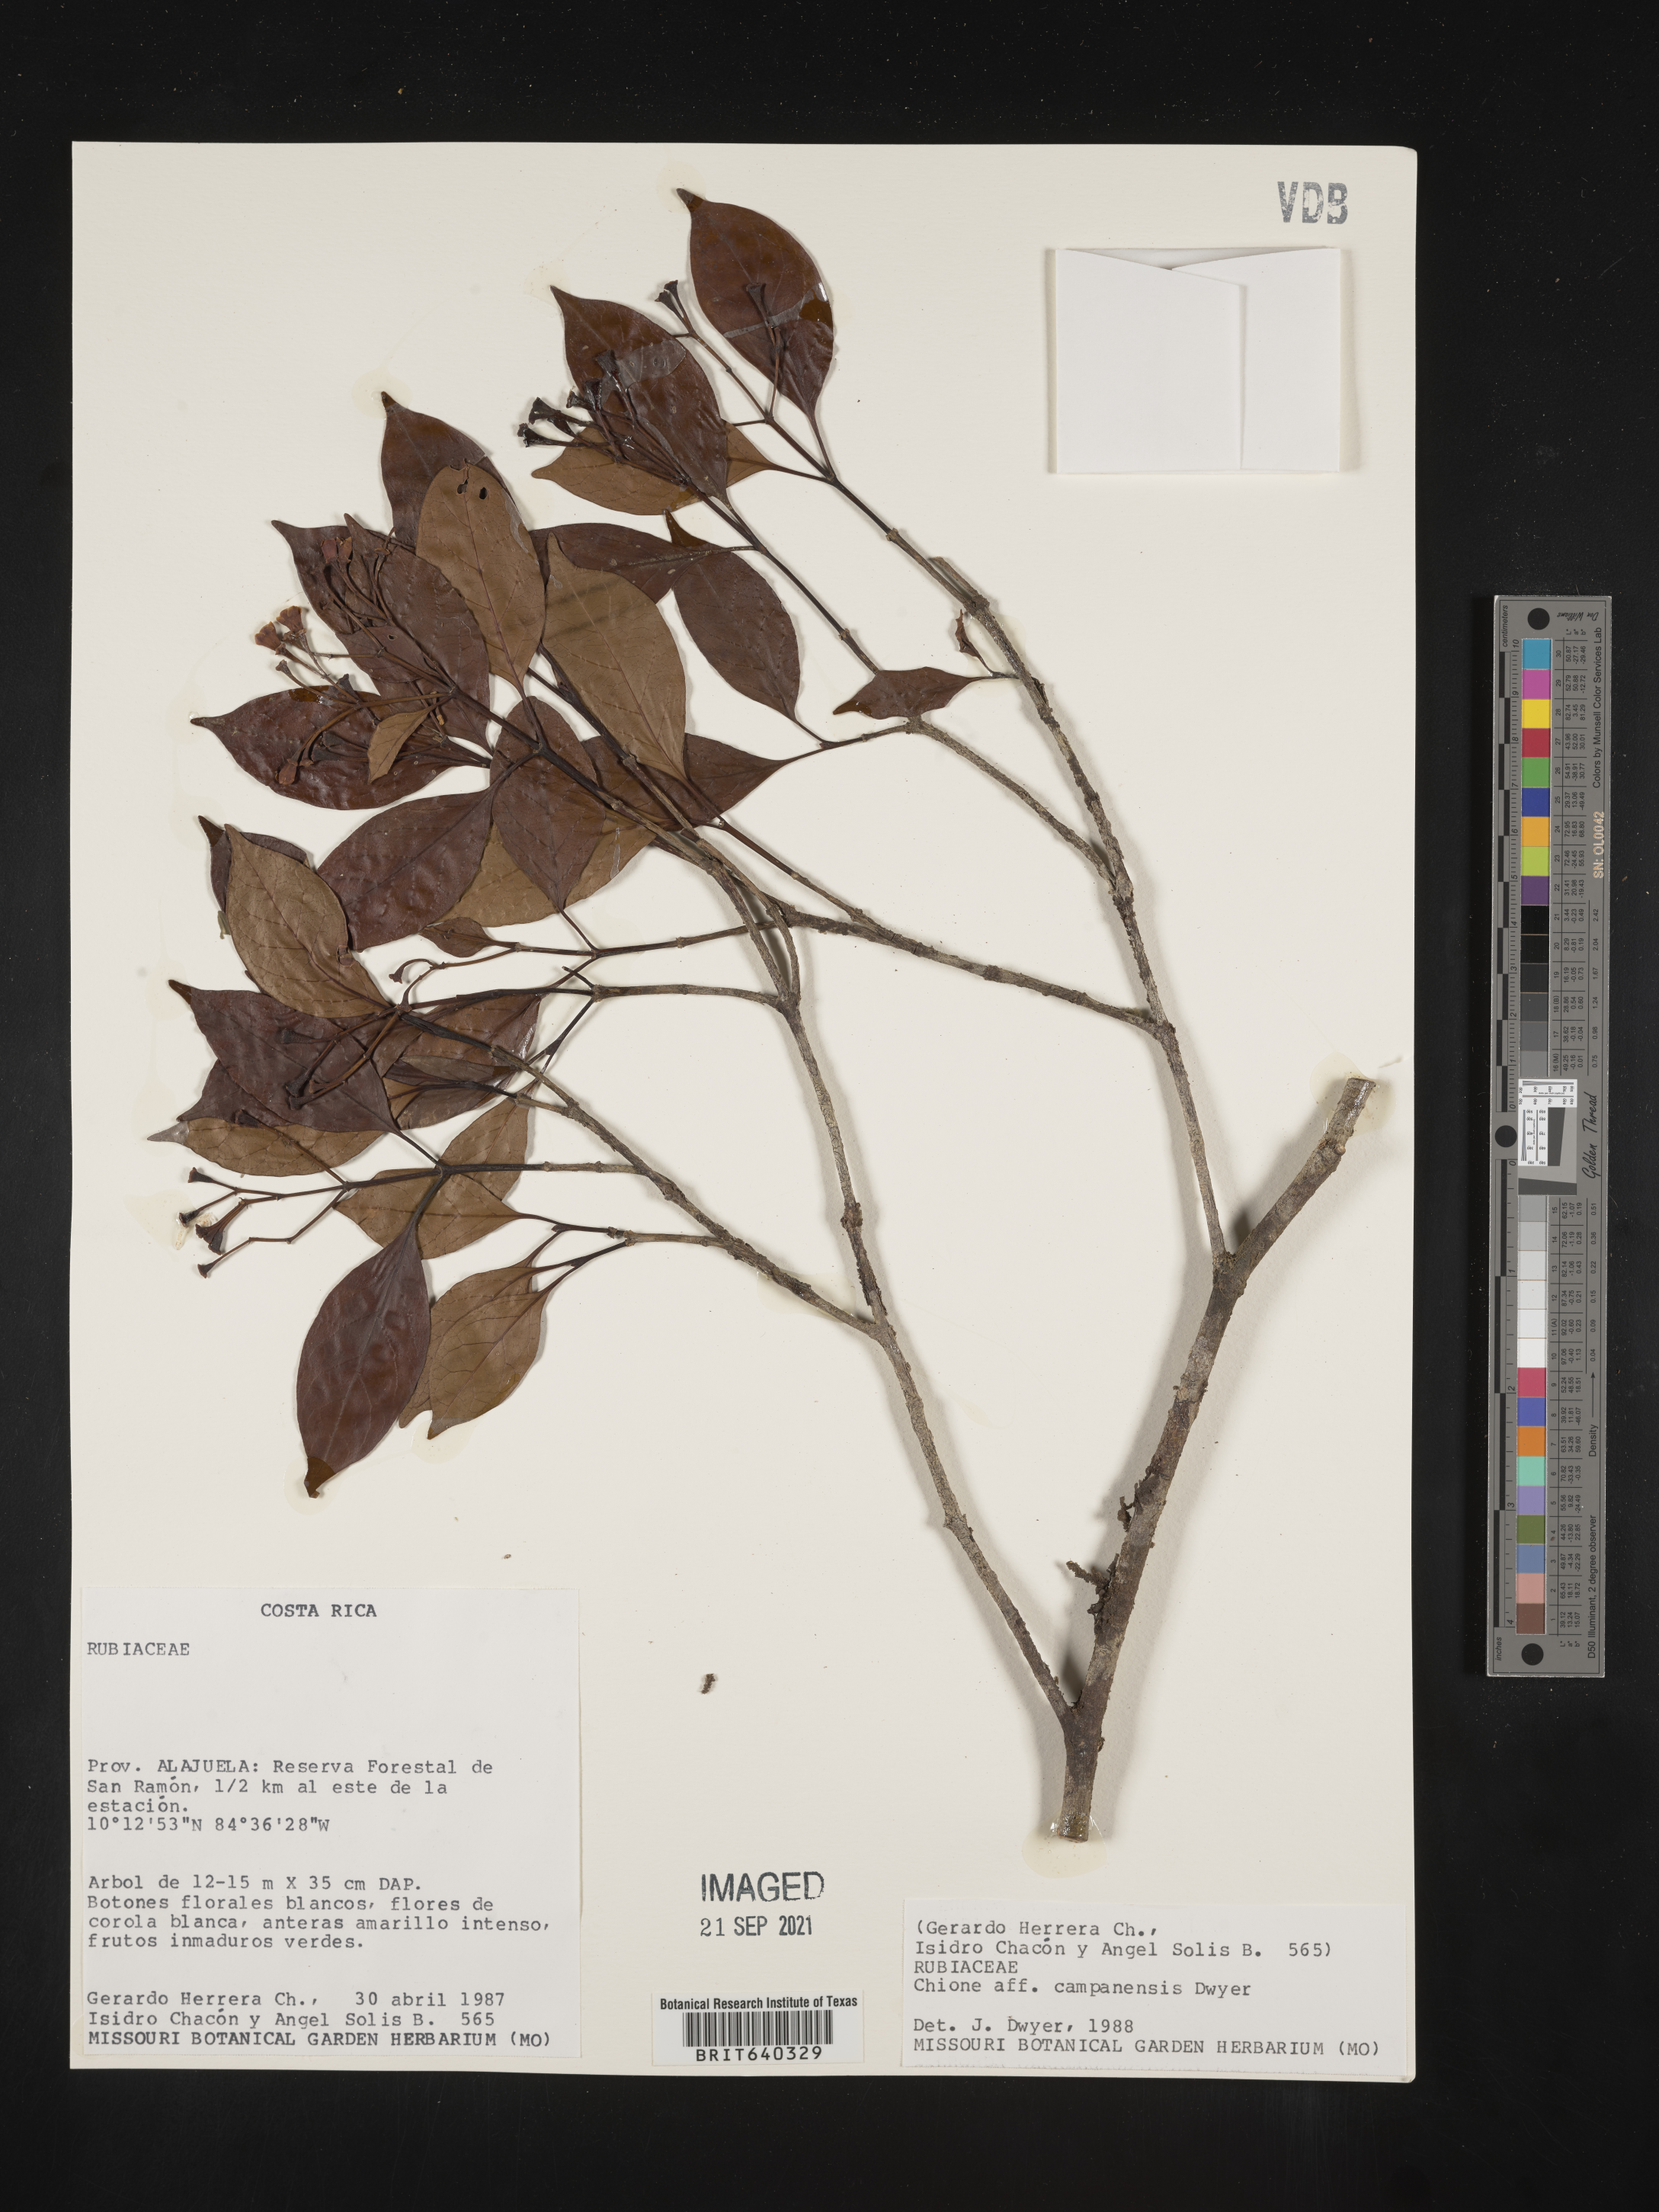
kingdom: Plantae
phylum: Tracheophyta
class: Magnoliopsida
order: Gentianales
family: Rubiaceae
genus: Chiococca
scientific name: Chiococca
